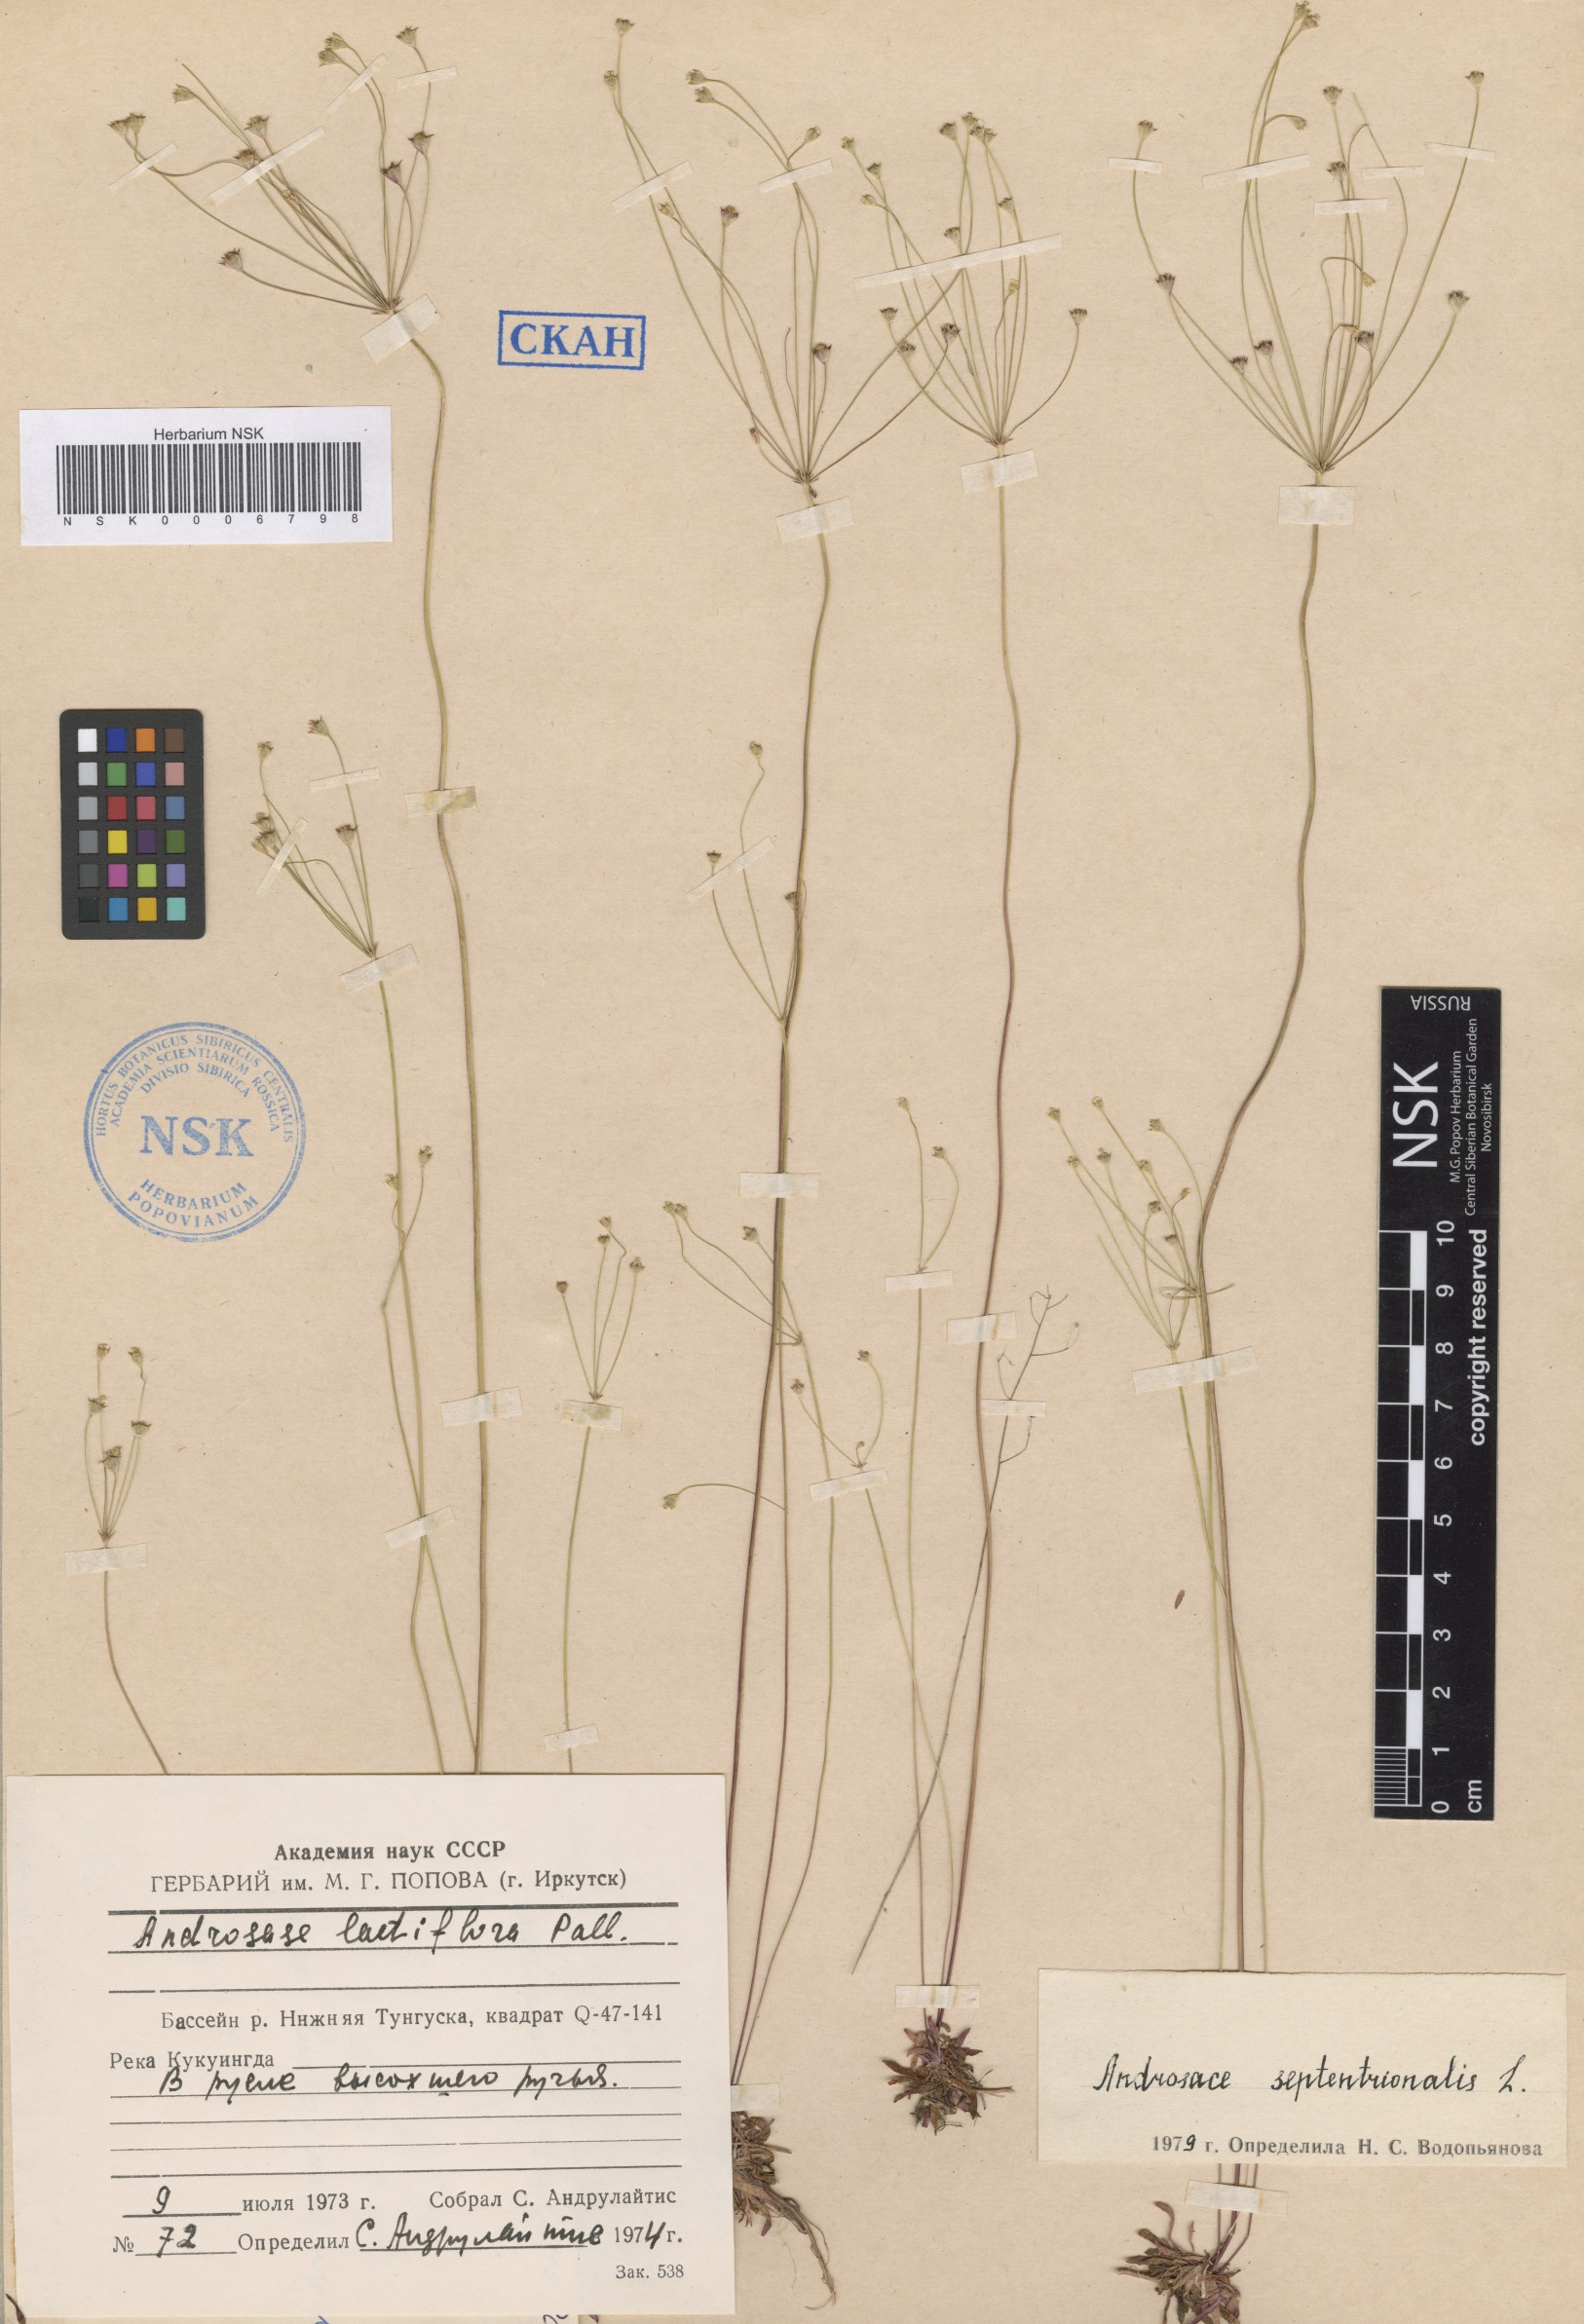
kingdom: Plantae
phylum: Tracheophyta
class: Magnoliopsida
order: Ericales
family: Primulaceae
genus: Androsace
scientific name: Androsace septentrionalis
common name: Hairy northern fairy-candelabra
